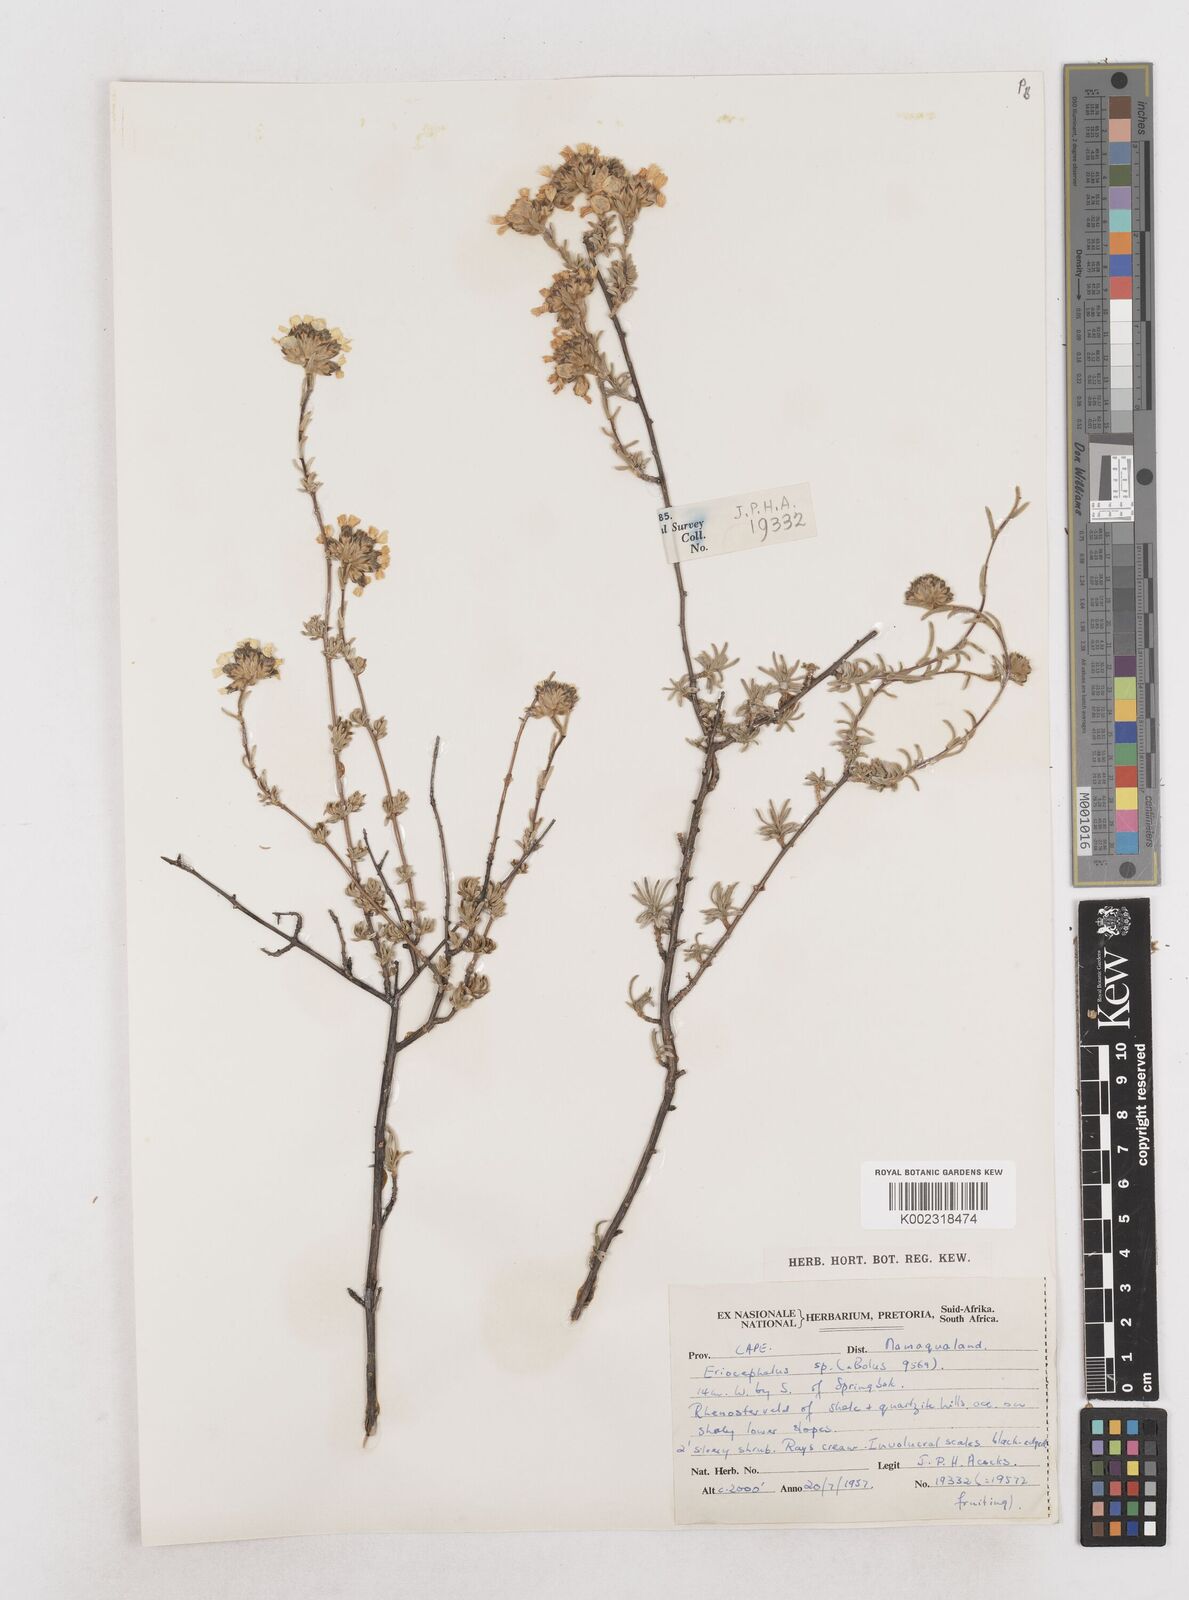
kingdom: Plantae
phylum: Tracheophyta
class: Magnoliopsida
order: Asterales
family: Asteraceae
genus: Eriocephalus
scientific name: Eriocephalus
